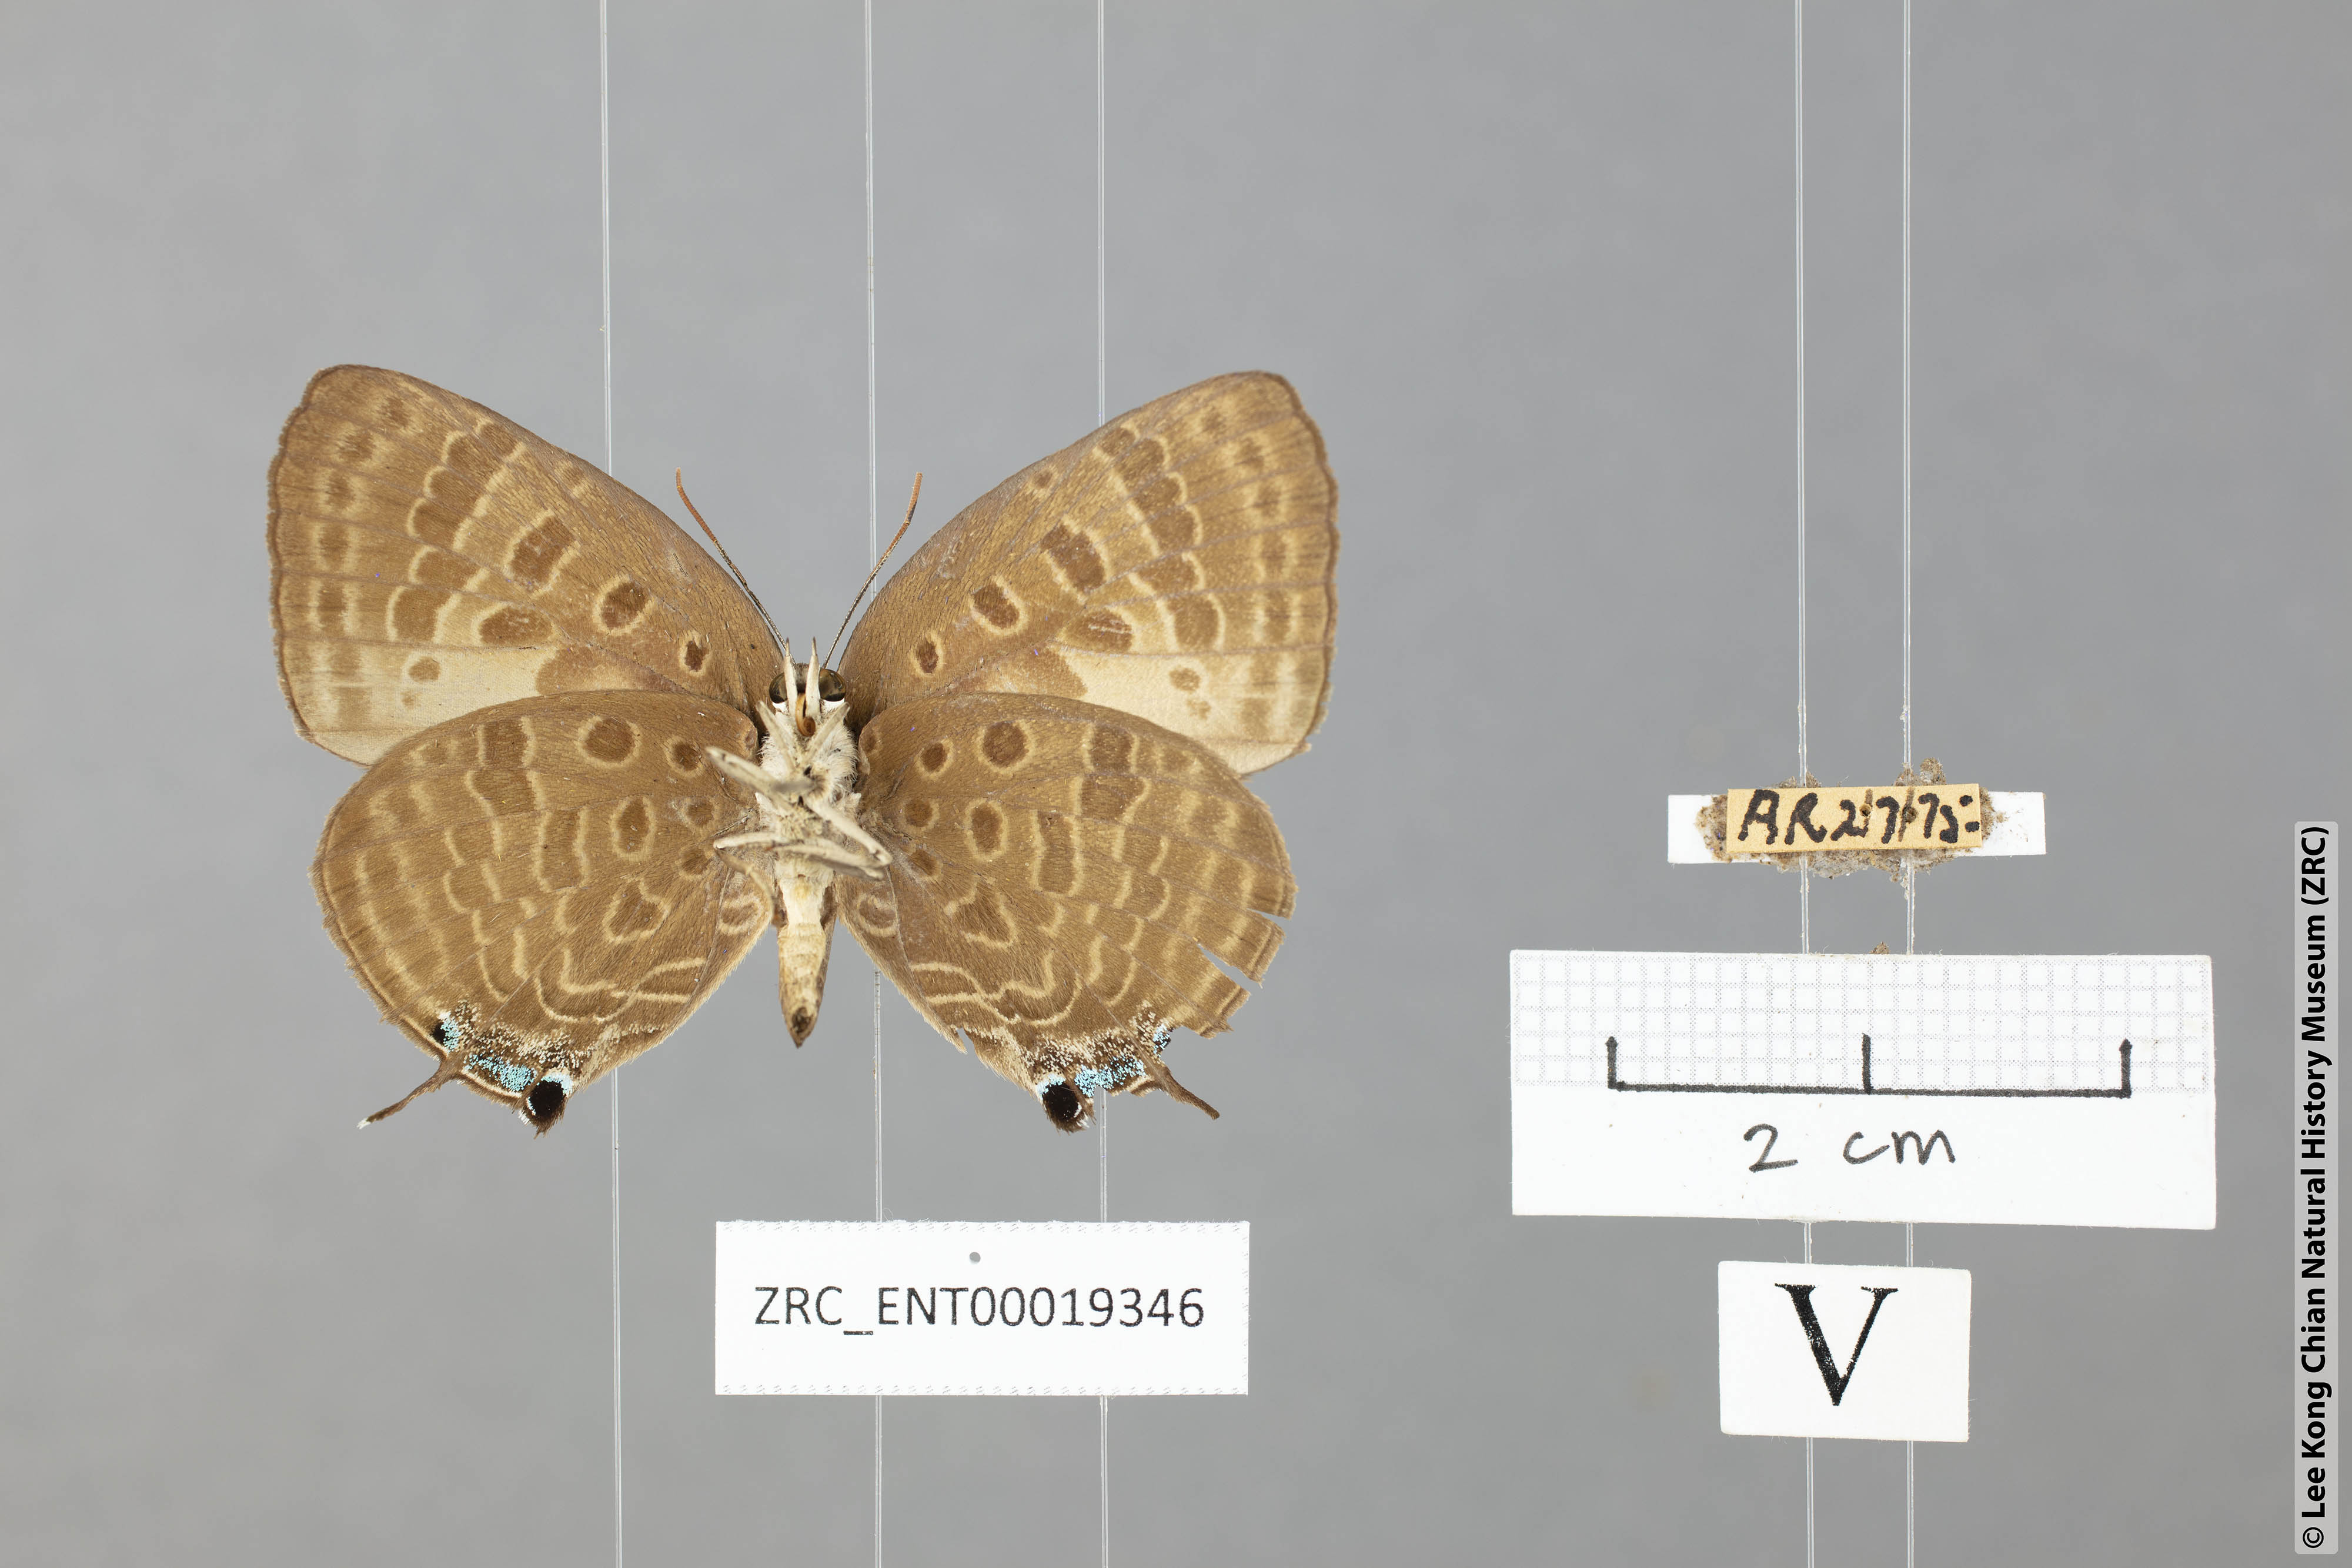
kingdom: Animalia
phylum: Arthropoda
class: Insecta
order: Lepidoptera
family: Lycaenidae
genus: Arhopala
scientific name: Arhopala cleander
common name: Large mergui oakblue
